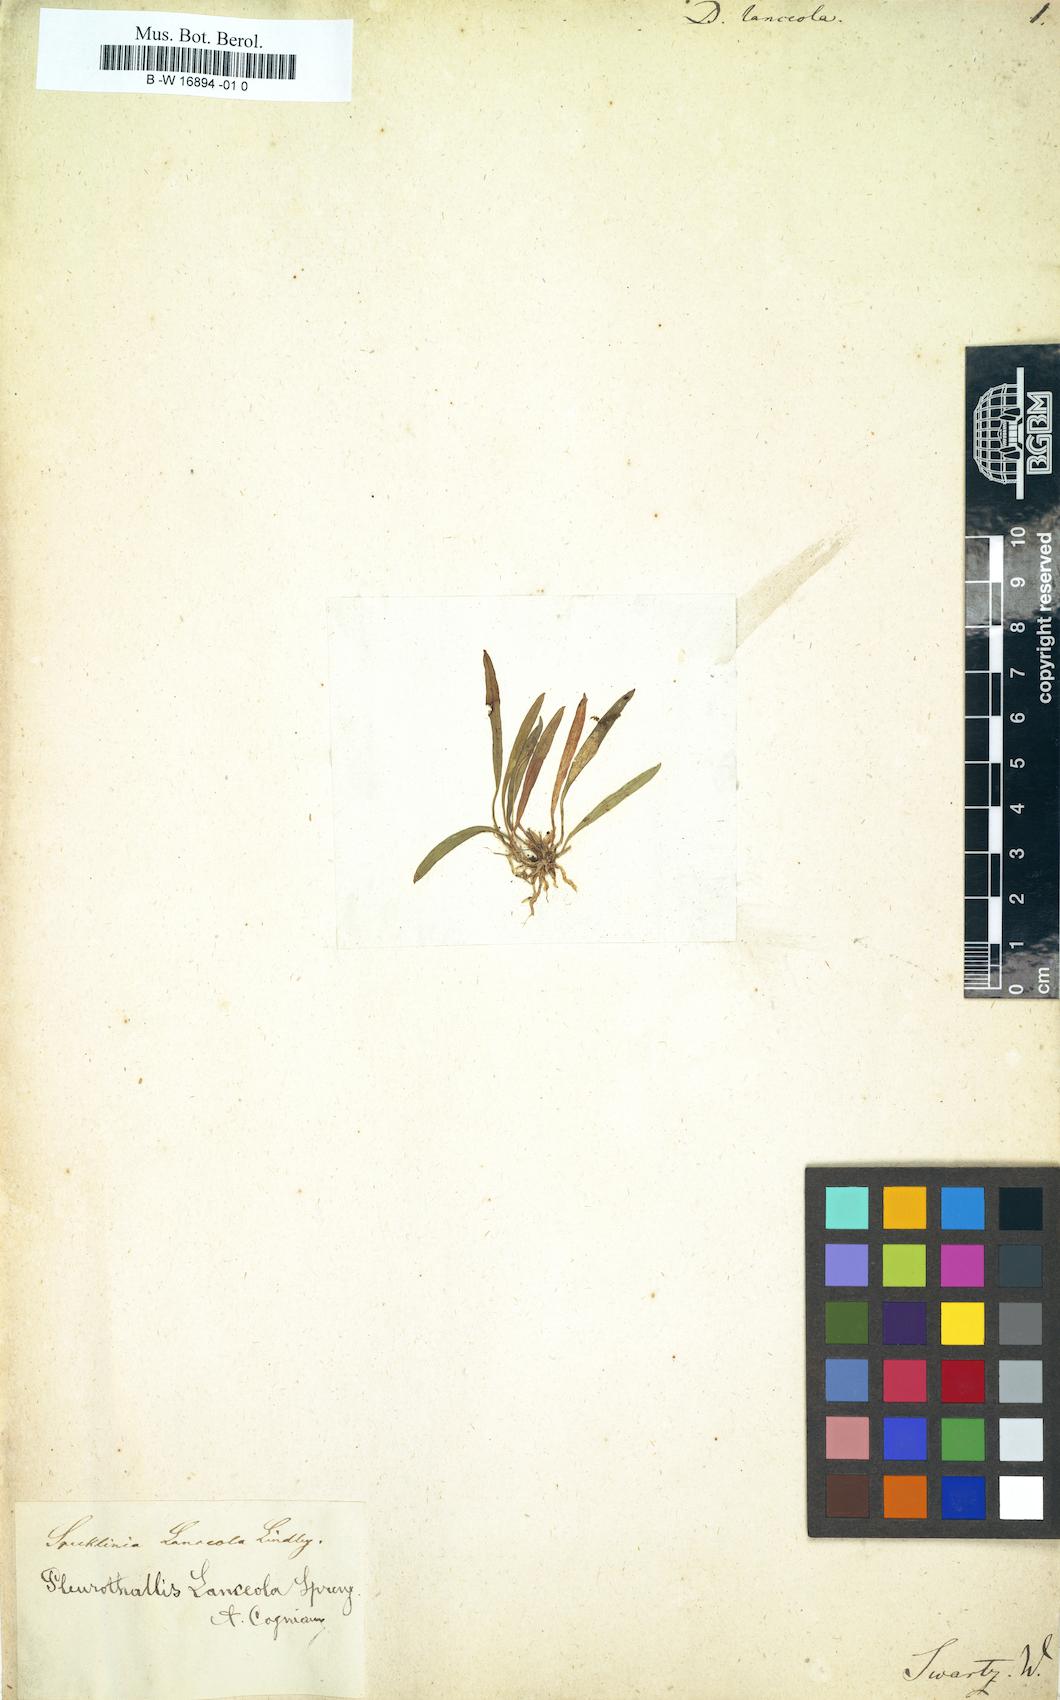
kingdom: Plantae
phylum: Tracheophyta
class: Liliopsida
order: Asparagales
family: Orchidaceae
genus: Specklinia
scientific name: Specklinia lanceola
